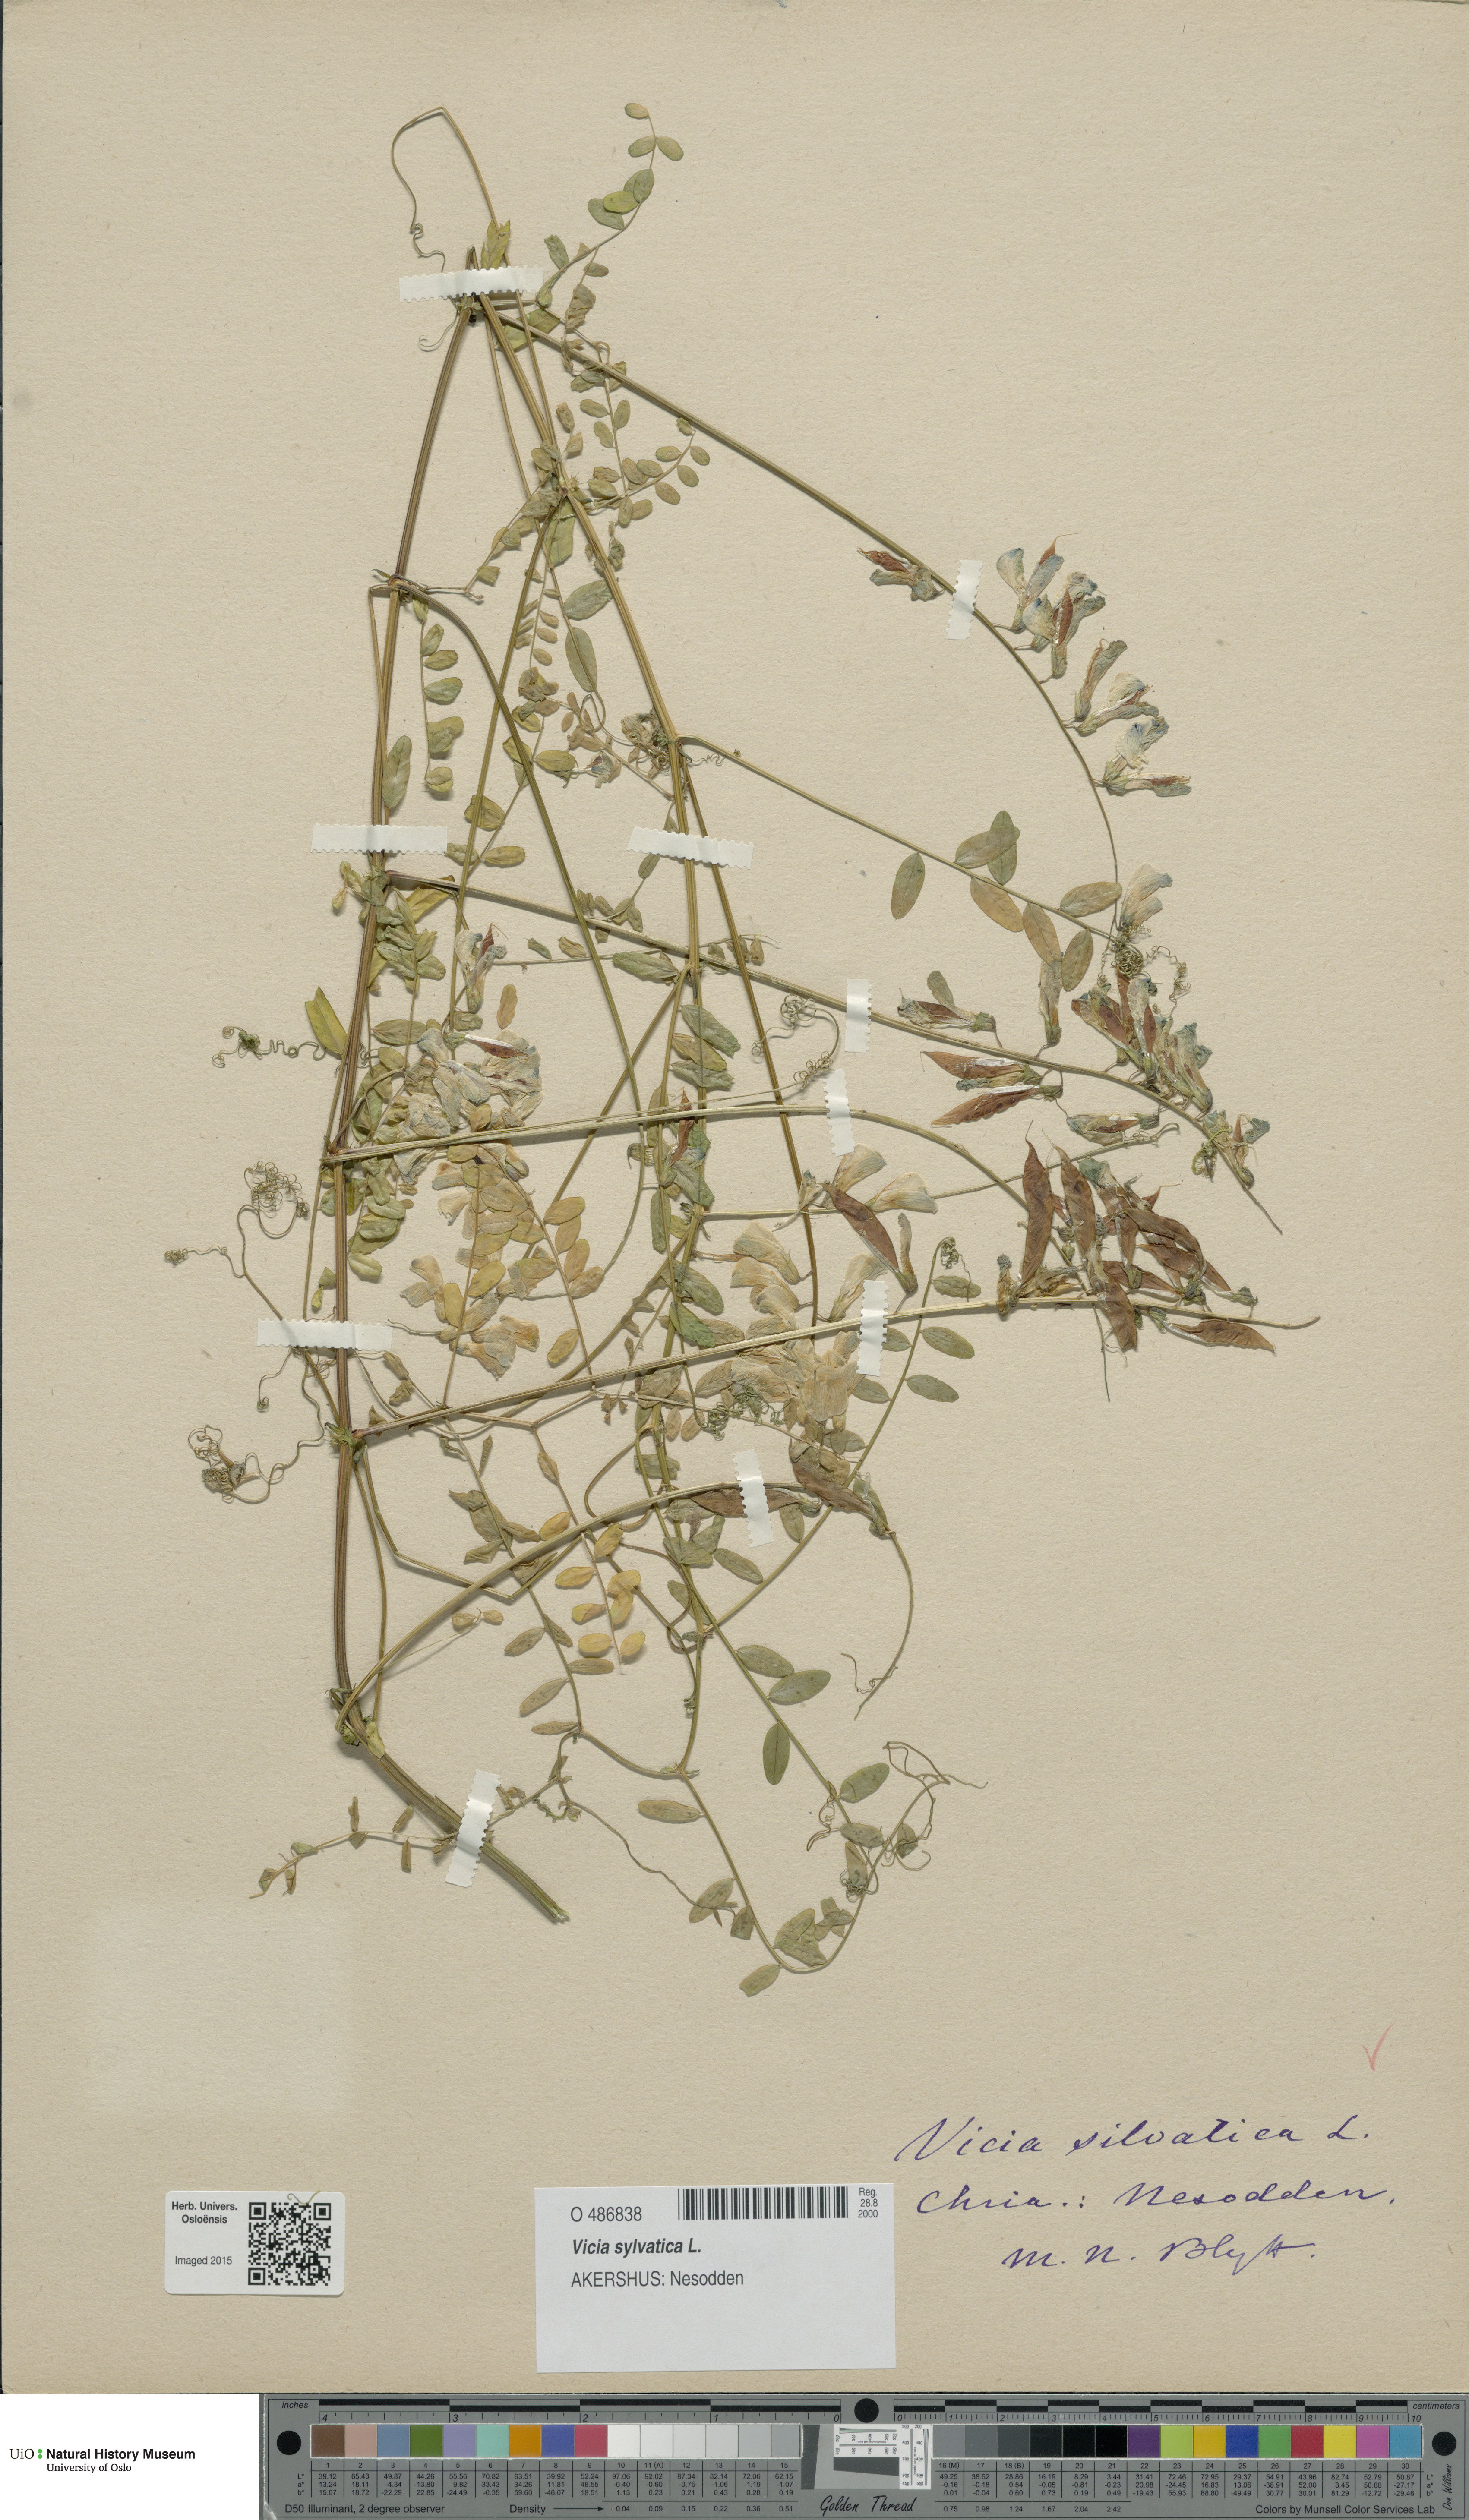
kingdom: Plantae
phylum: Tracheophyta
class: Magnoliopsida
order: Fabales
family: Fabaceae
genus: Vicia
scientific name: Vicia sylvatica
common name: Wood vetch
